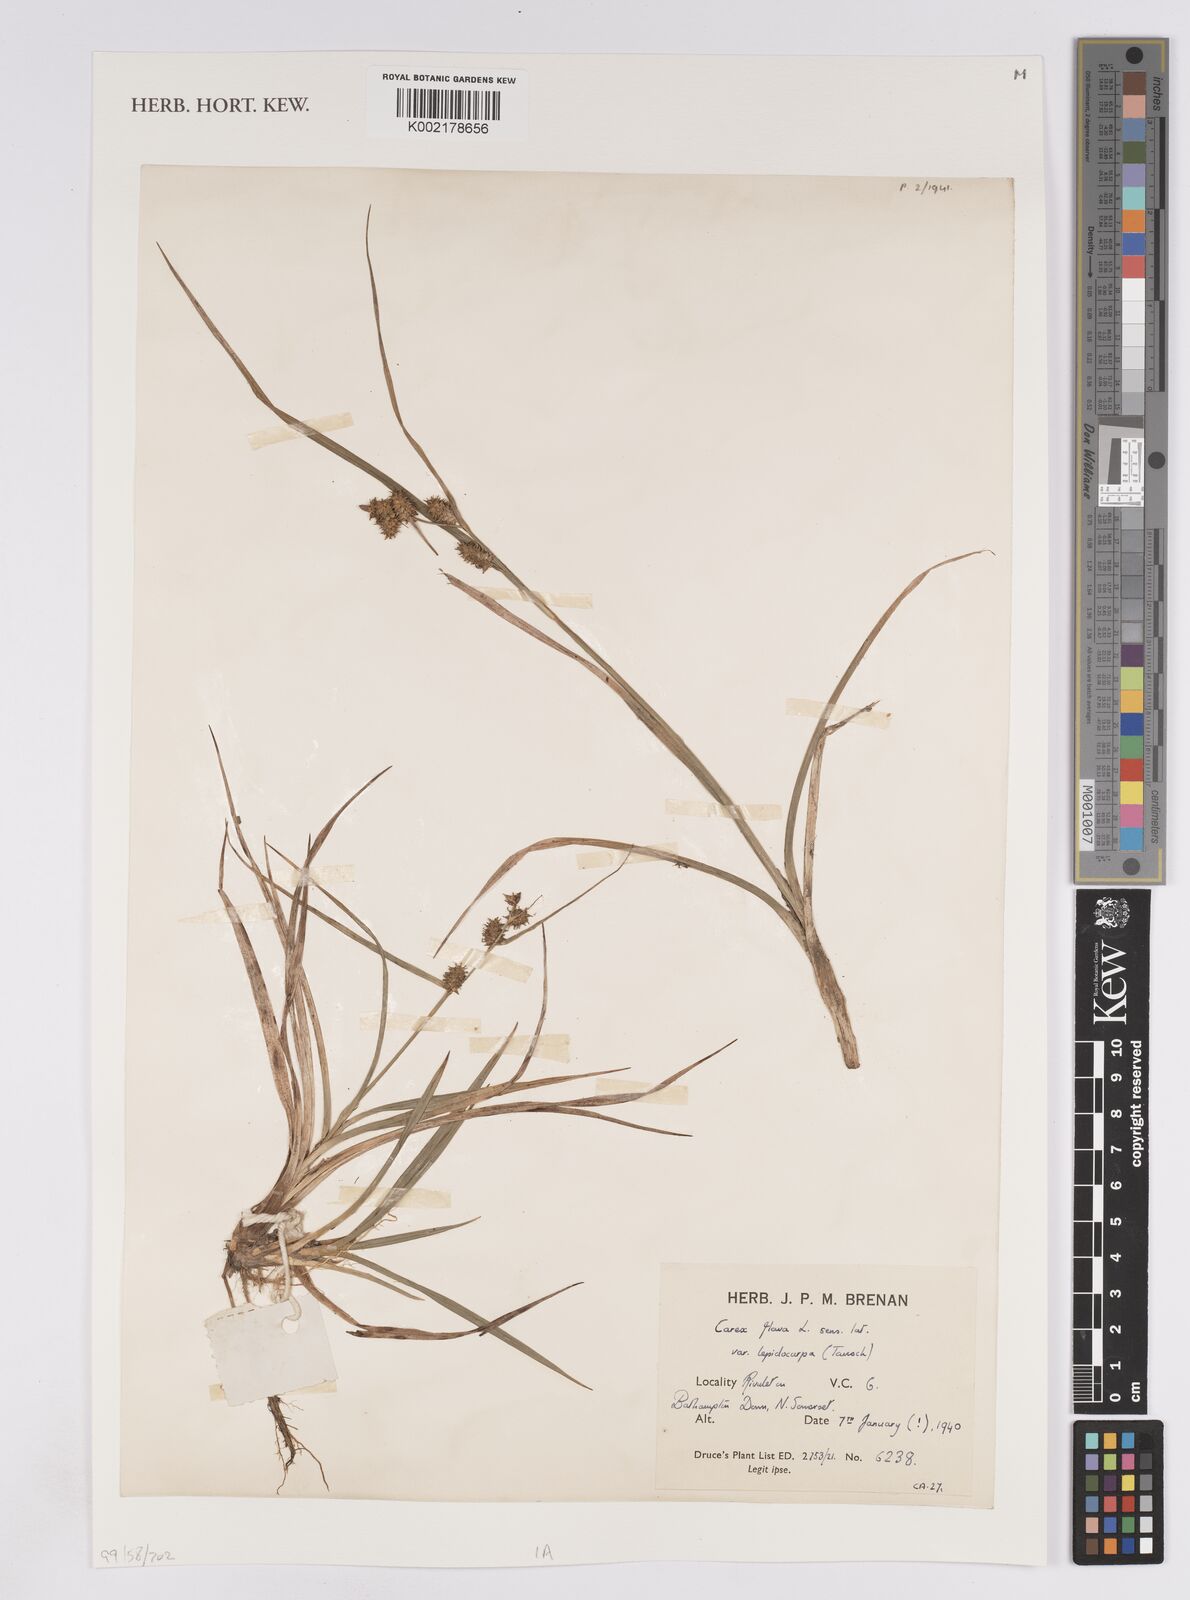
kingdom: Plantae
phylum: Tracheophyta
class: Liliopsida
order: Poales
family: Cyperaceae
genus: Carex
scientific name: Carex lepidocarpa
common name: Long-stalked yellow-sedge
